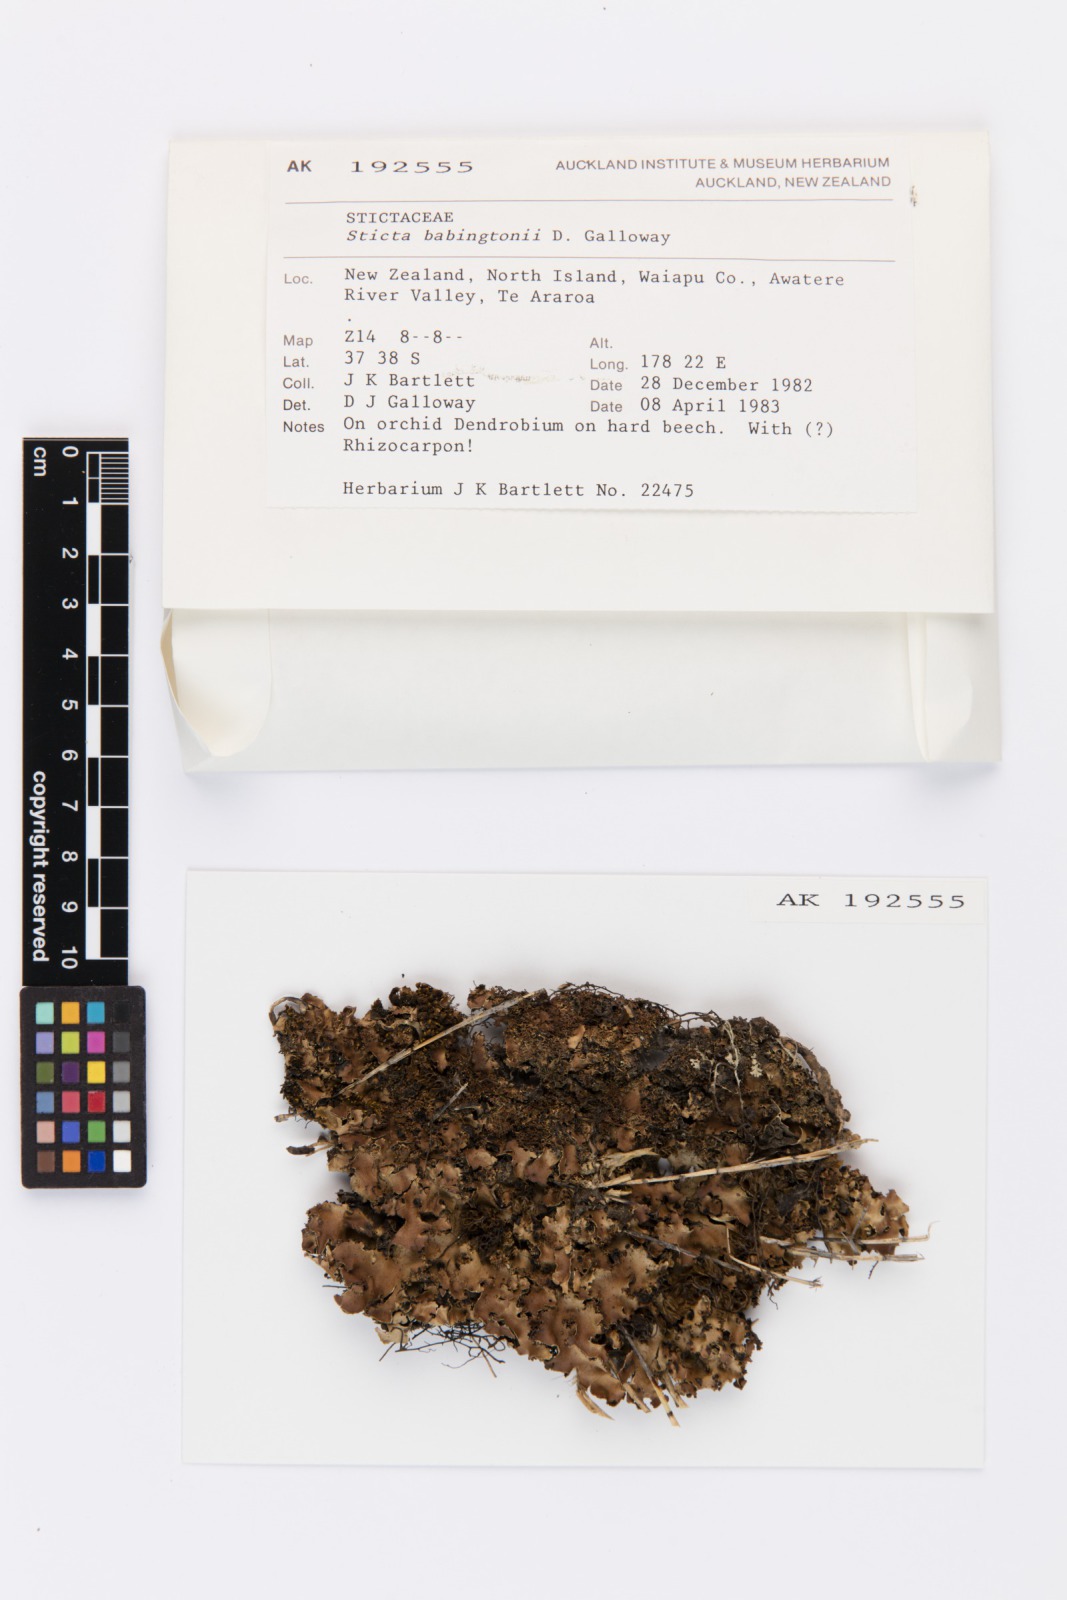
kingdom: Fungi
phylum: Ascomycota
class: Lecanoromycetes
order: Peltigerales
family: Lobariaceae
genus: Sticta
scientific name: Sticta babingtonii
